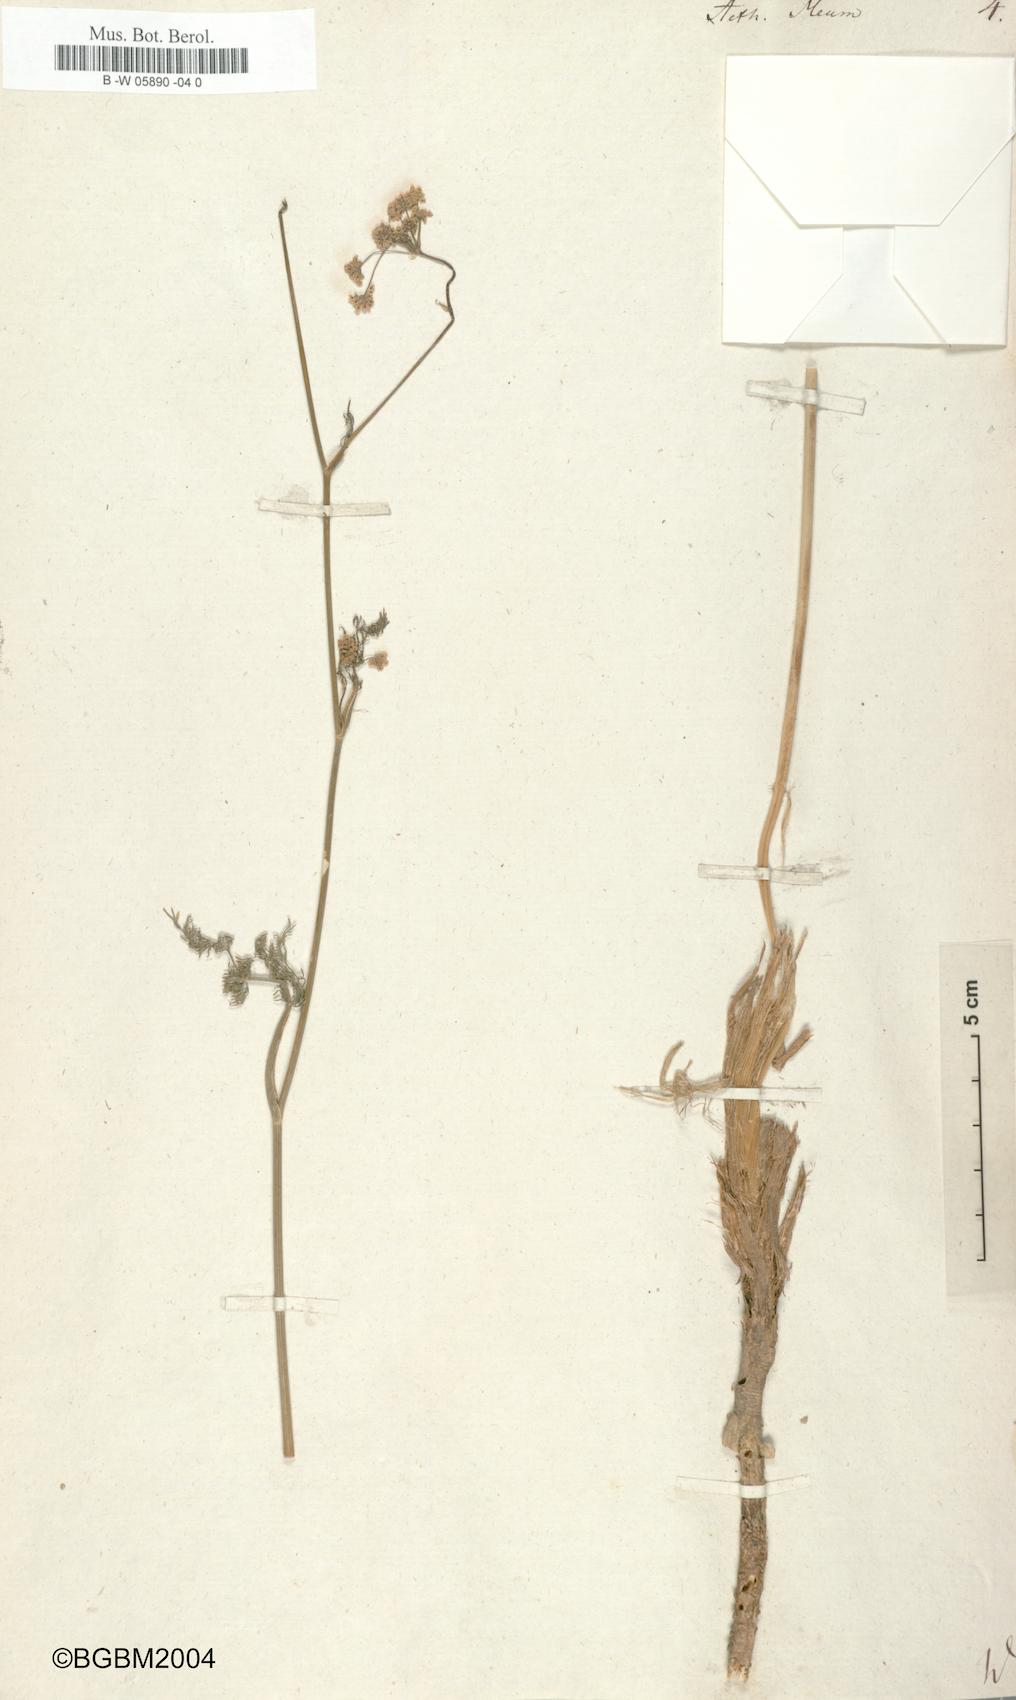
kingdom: Plantae
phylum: Tracheophyta
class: Magnoliopsida
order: Apiales
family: Apiaceae
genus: Meum
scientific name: Meum athamanticum
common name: Spignel
